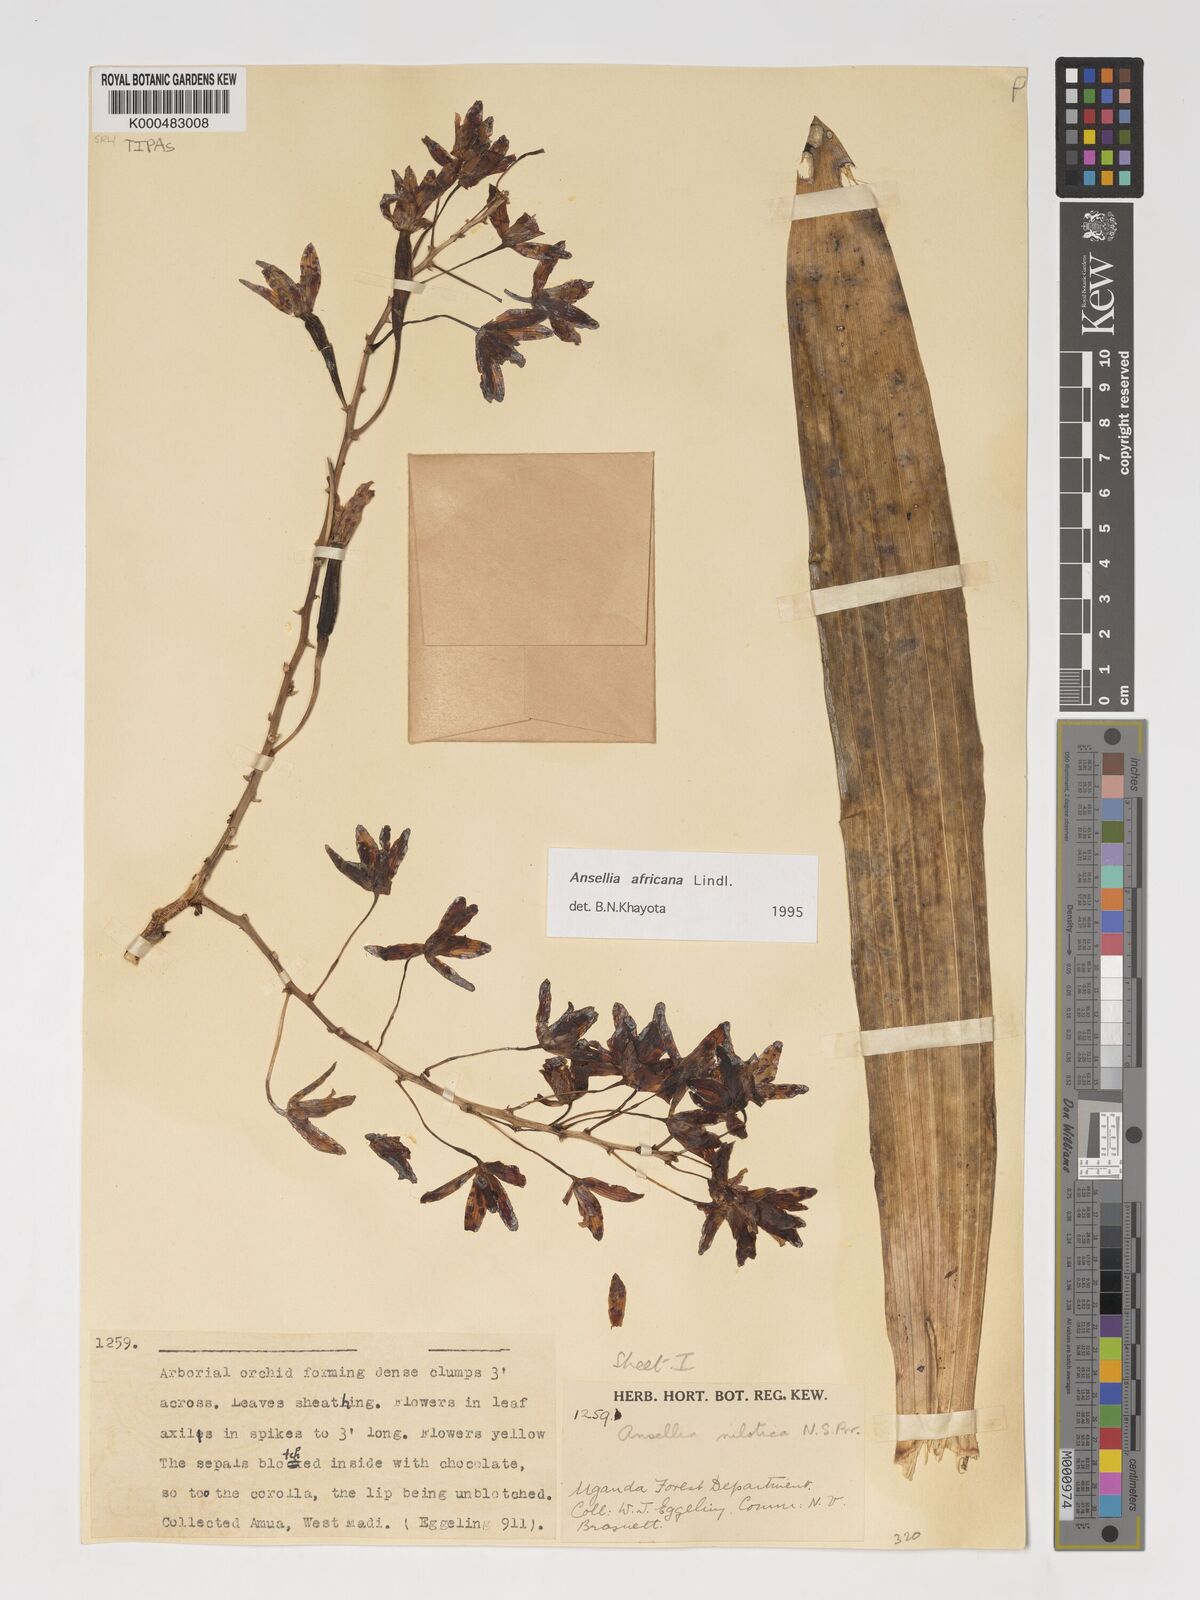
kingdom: Plantae
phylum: Tracheophyta
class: Liliopsida
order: Asparagales
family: Orchidaceae
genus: Ansellia
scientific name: Ansellia africana
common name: African ansellia
